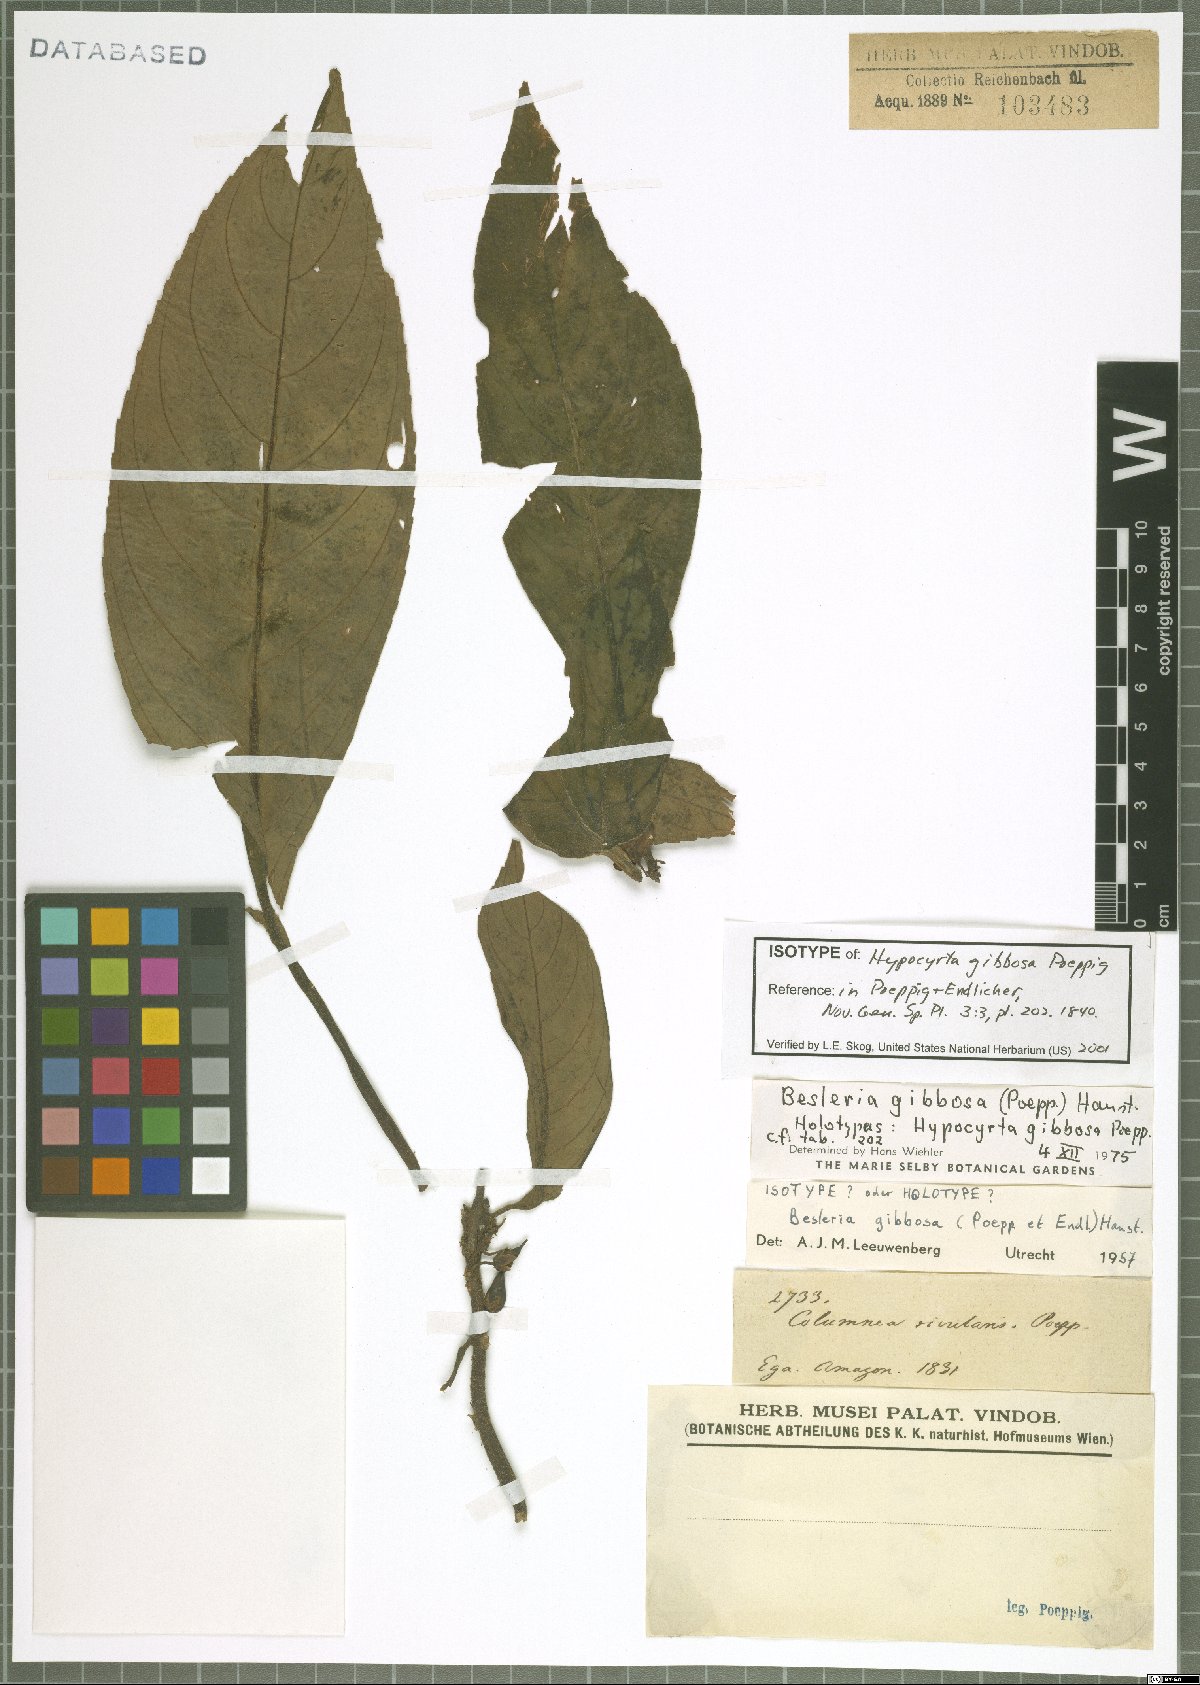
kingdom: Plantae
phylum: Tracheophyta
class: Magnoliopsida
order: Lamiales
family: Gesneriaceae
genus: Besleria
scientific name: Besleria gibbosa
